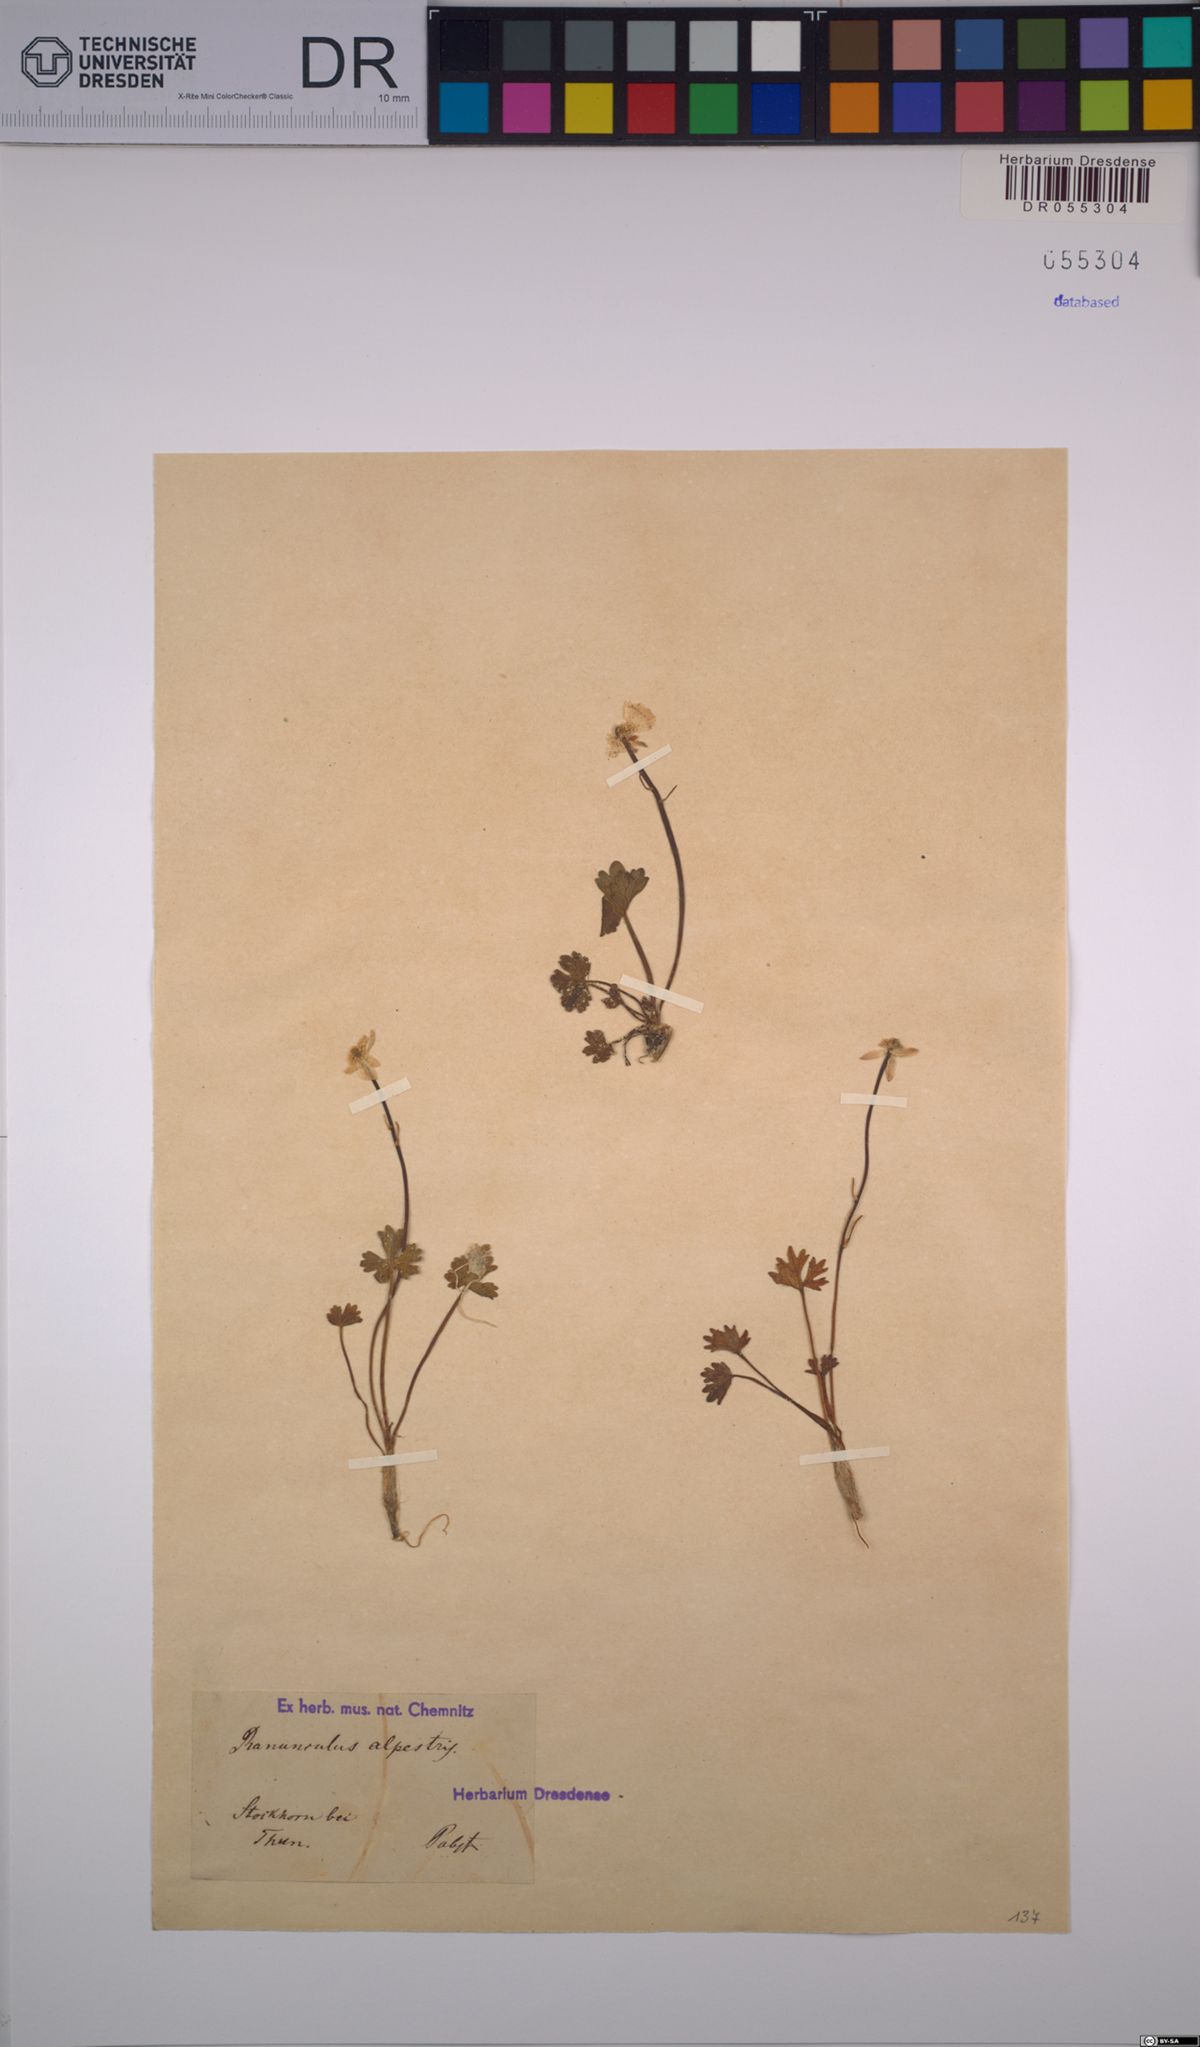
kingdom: Plantae
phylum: Tracheophyta
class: Magnoliopsida
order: Ranunculales
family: Ranunculaceae
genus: Ranunculus
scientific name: Ranunculus alpestris
